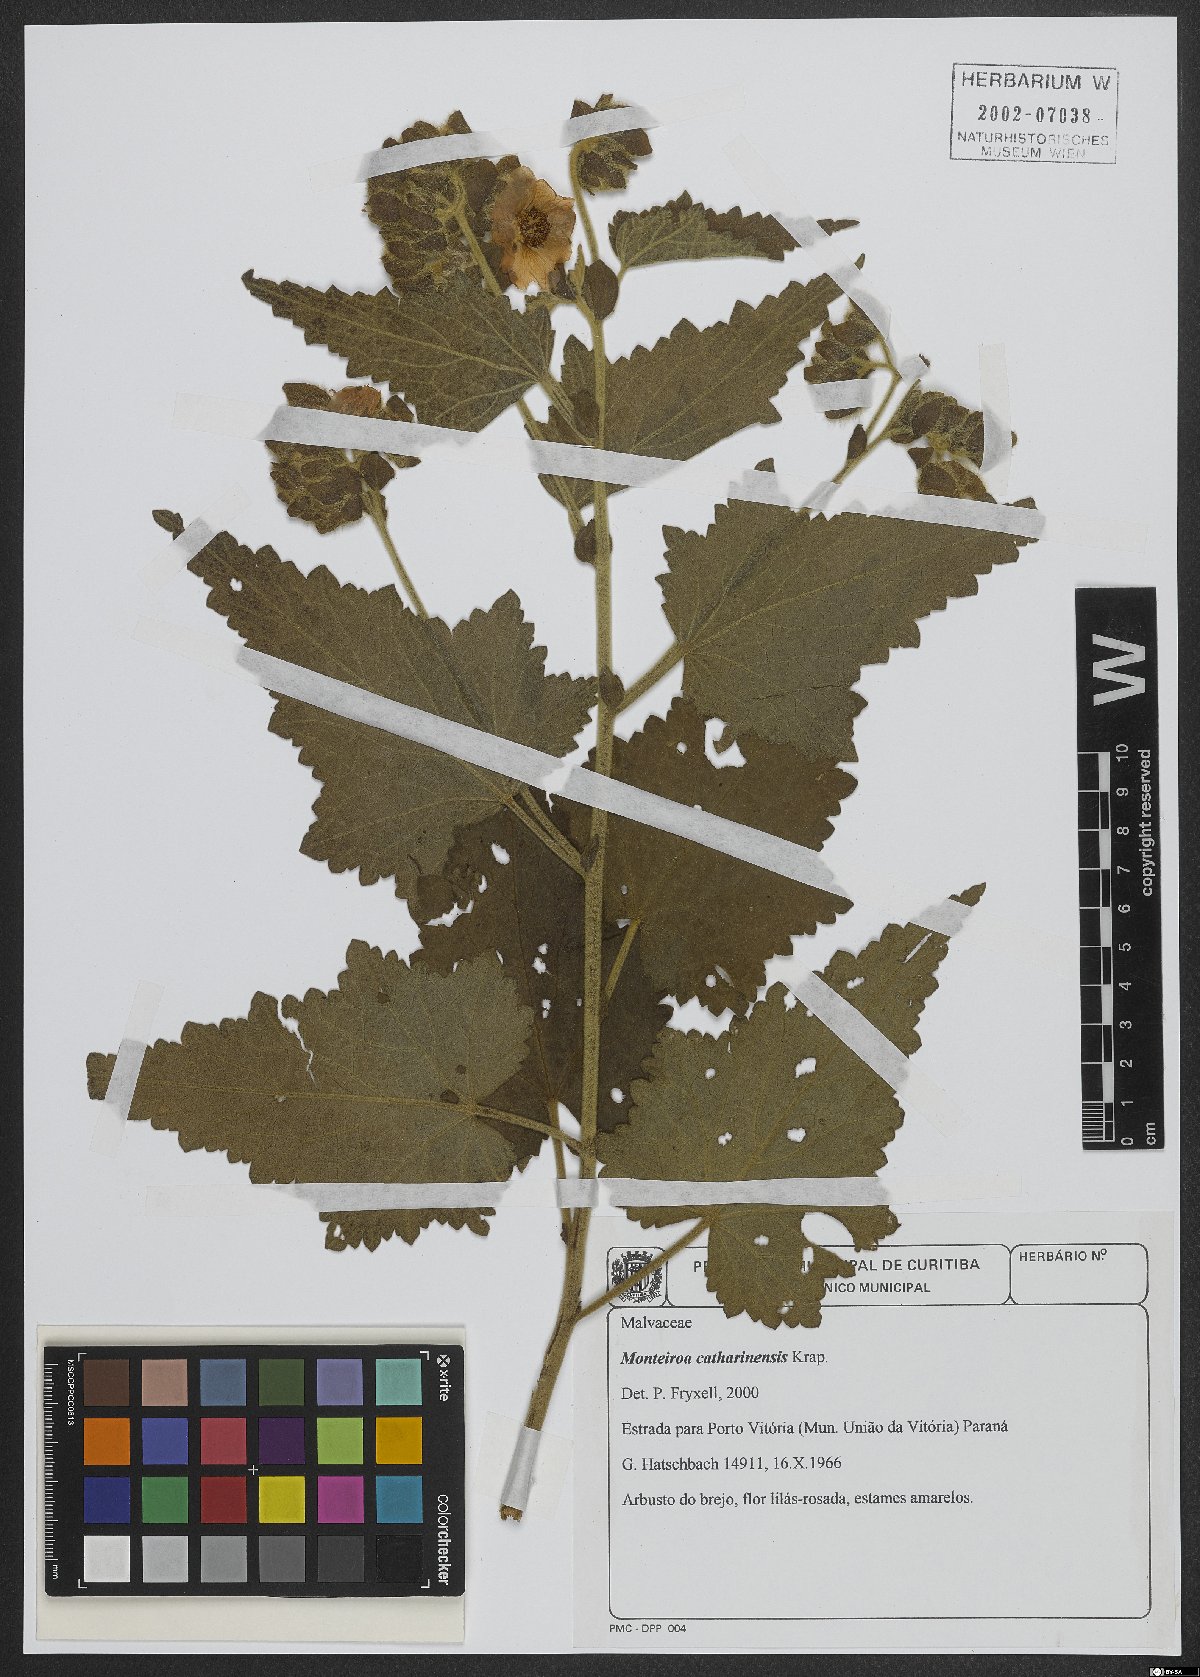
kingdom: Plantae
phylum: Tracheophyta
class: Magnoliopsida
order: Malvales
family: Malvaceae
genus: Monteiroa
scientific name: Monteiroa catharinensis
